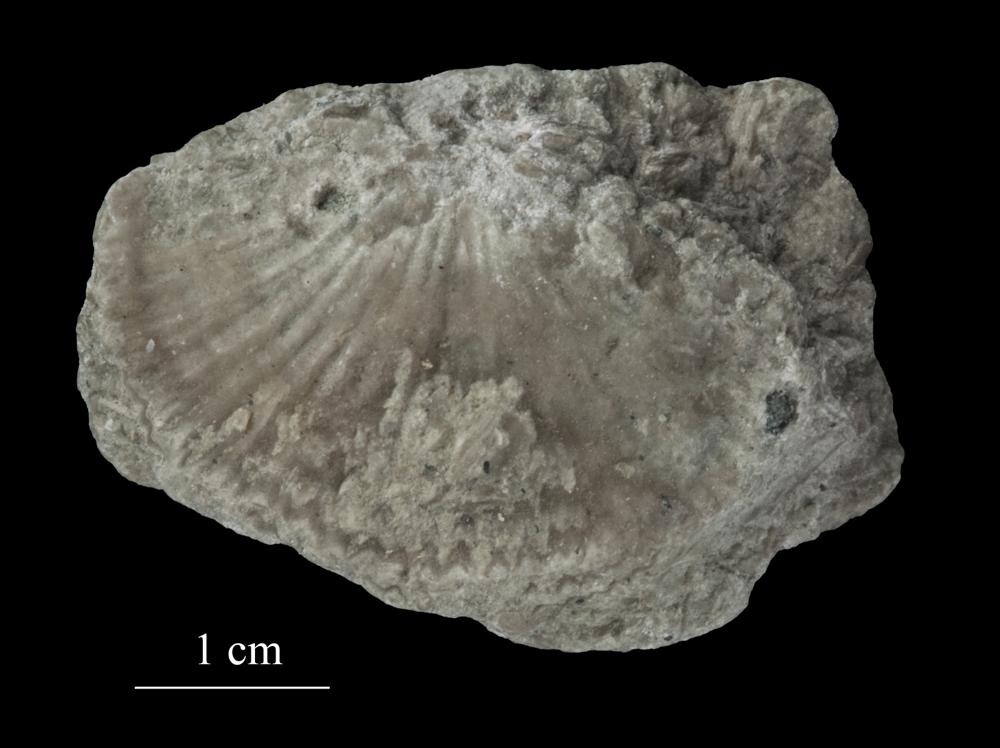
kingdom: Animalia
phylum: Mollusca
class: Gastropoda
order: Neogastropoda
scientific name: Neogastropoda
